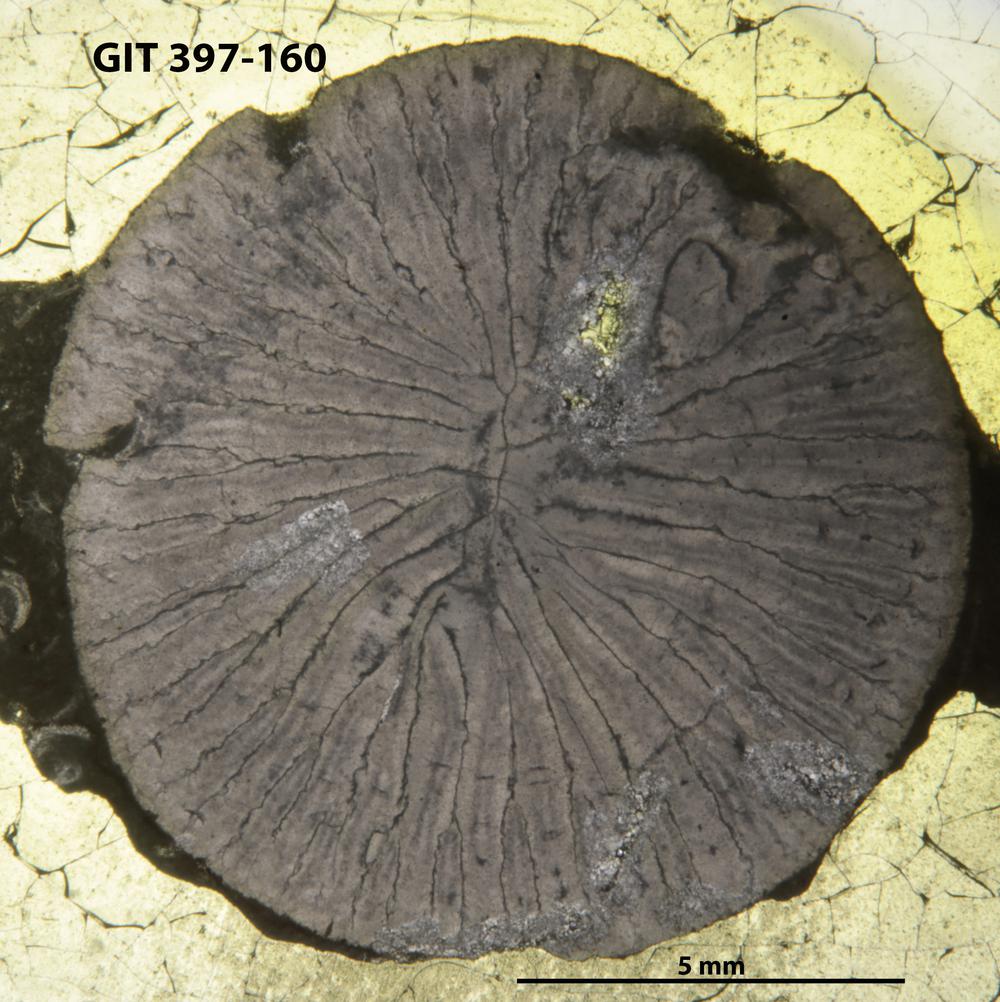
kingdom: Animalia
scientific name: Animalia
